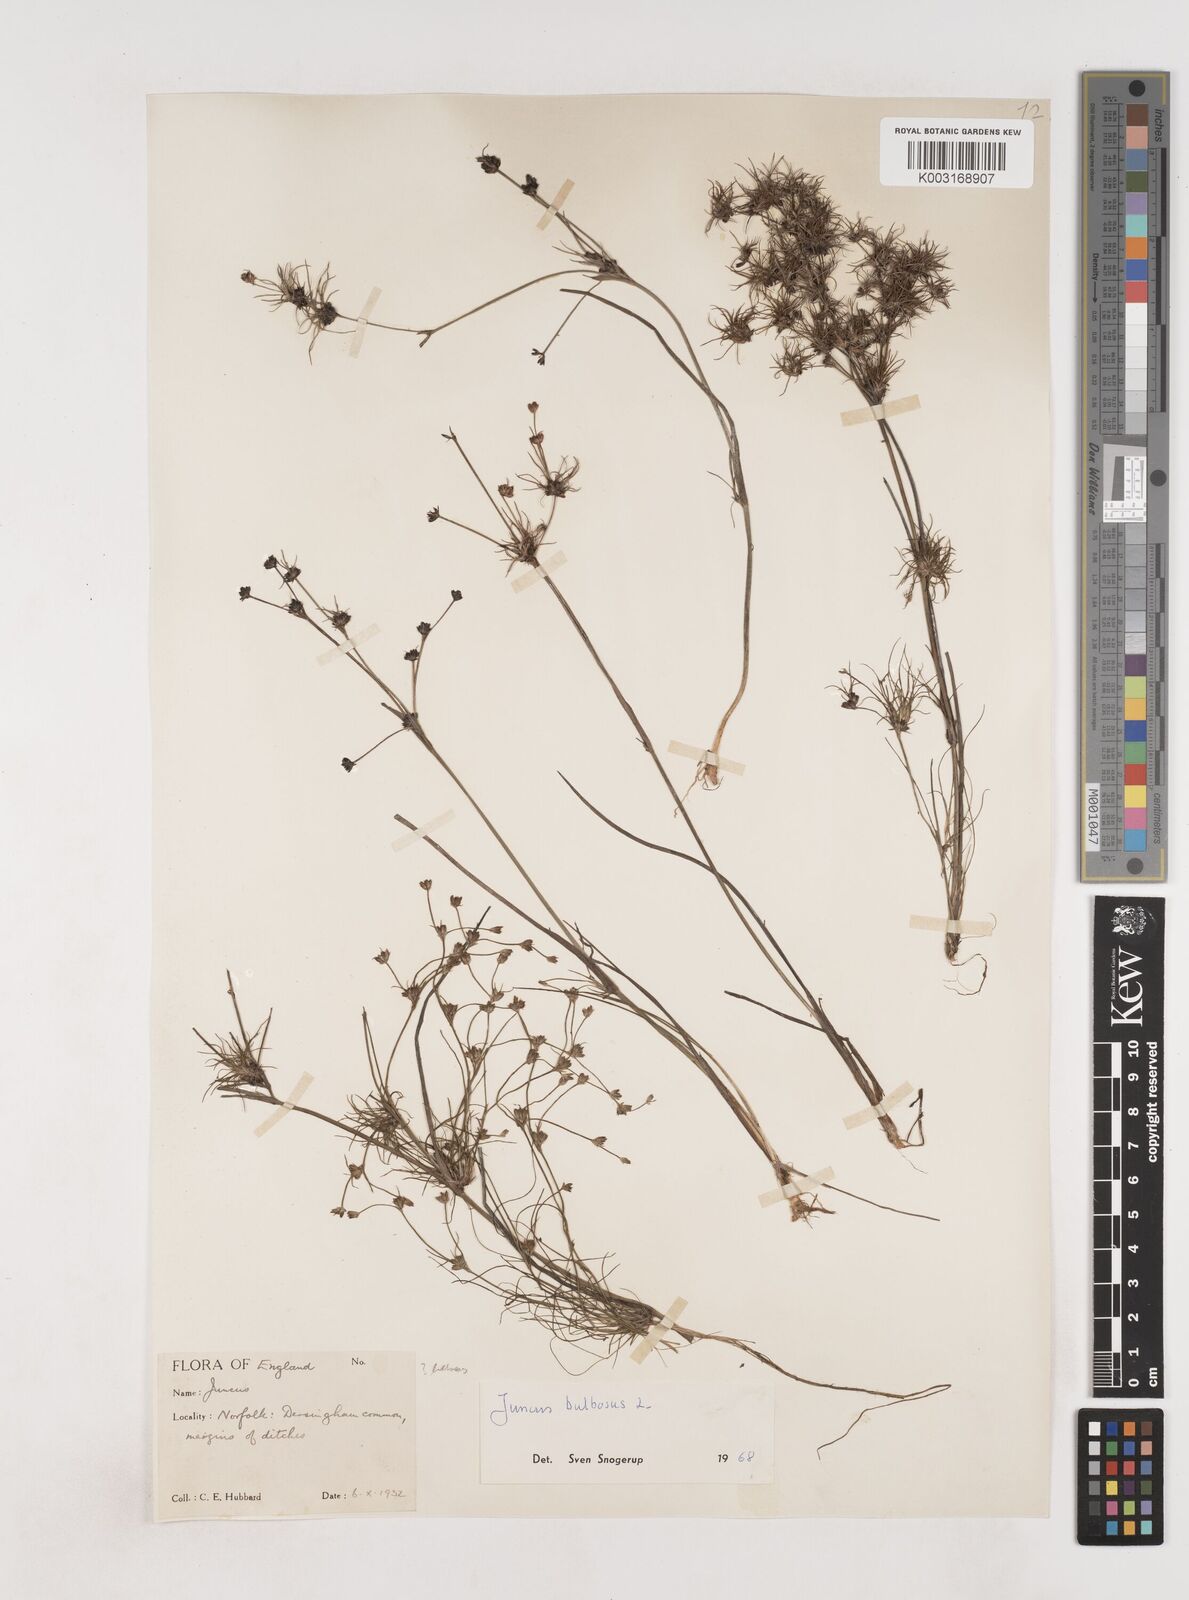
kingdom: Plantae
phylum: Tracheophyta
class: Liliopsida
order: Poales
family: Juncaceae
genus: Juncus
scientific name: Juncus bulbosus
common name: Bulbous rush
